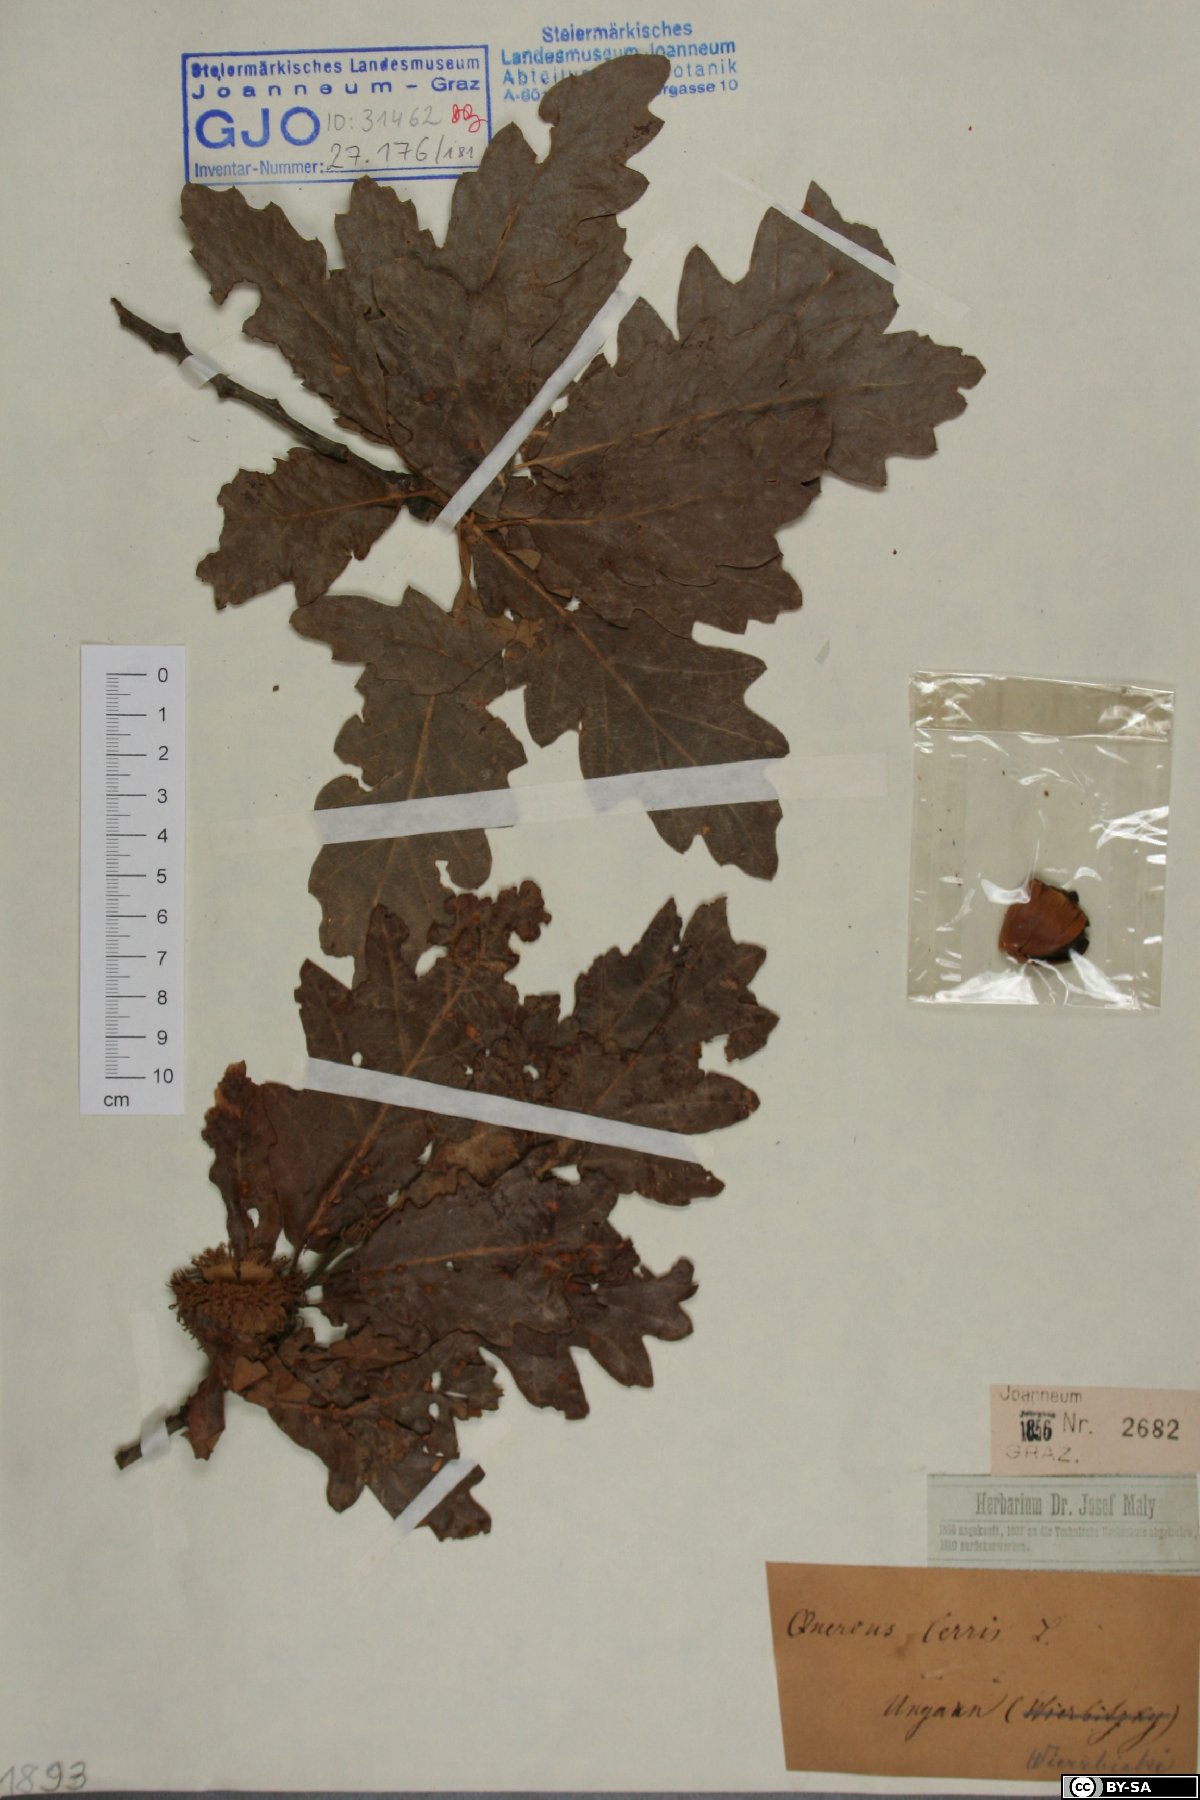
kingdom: Plantae
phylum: Tracheophyta
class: Magnoliopsida
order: Fagales
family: Fagaceae
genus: Quercus
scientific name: Quercus cerris
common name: Turkey oak
